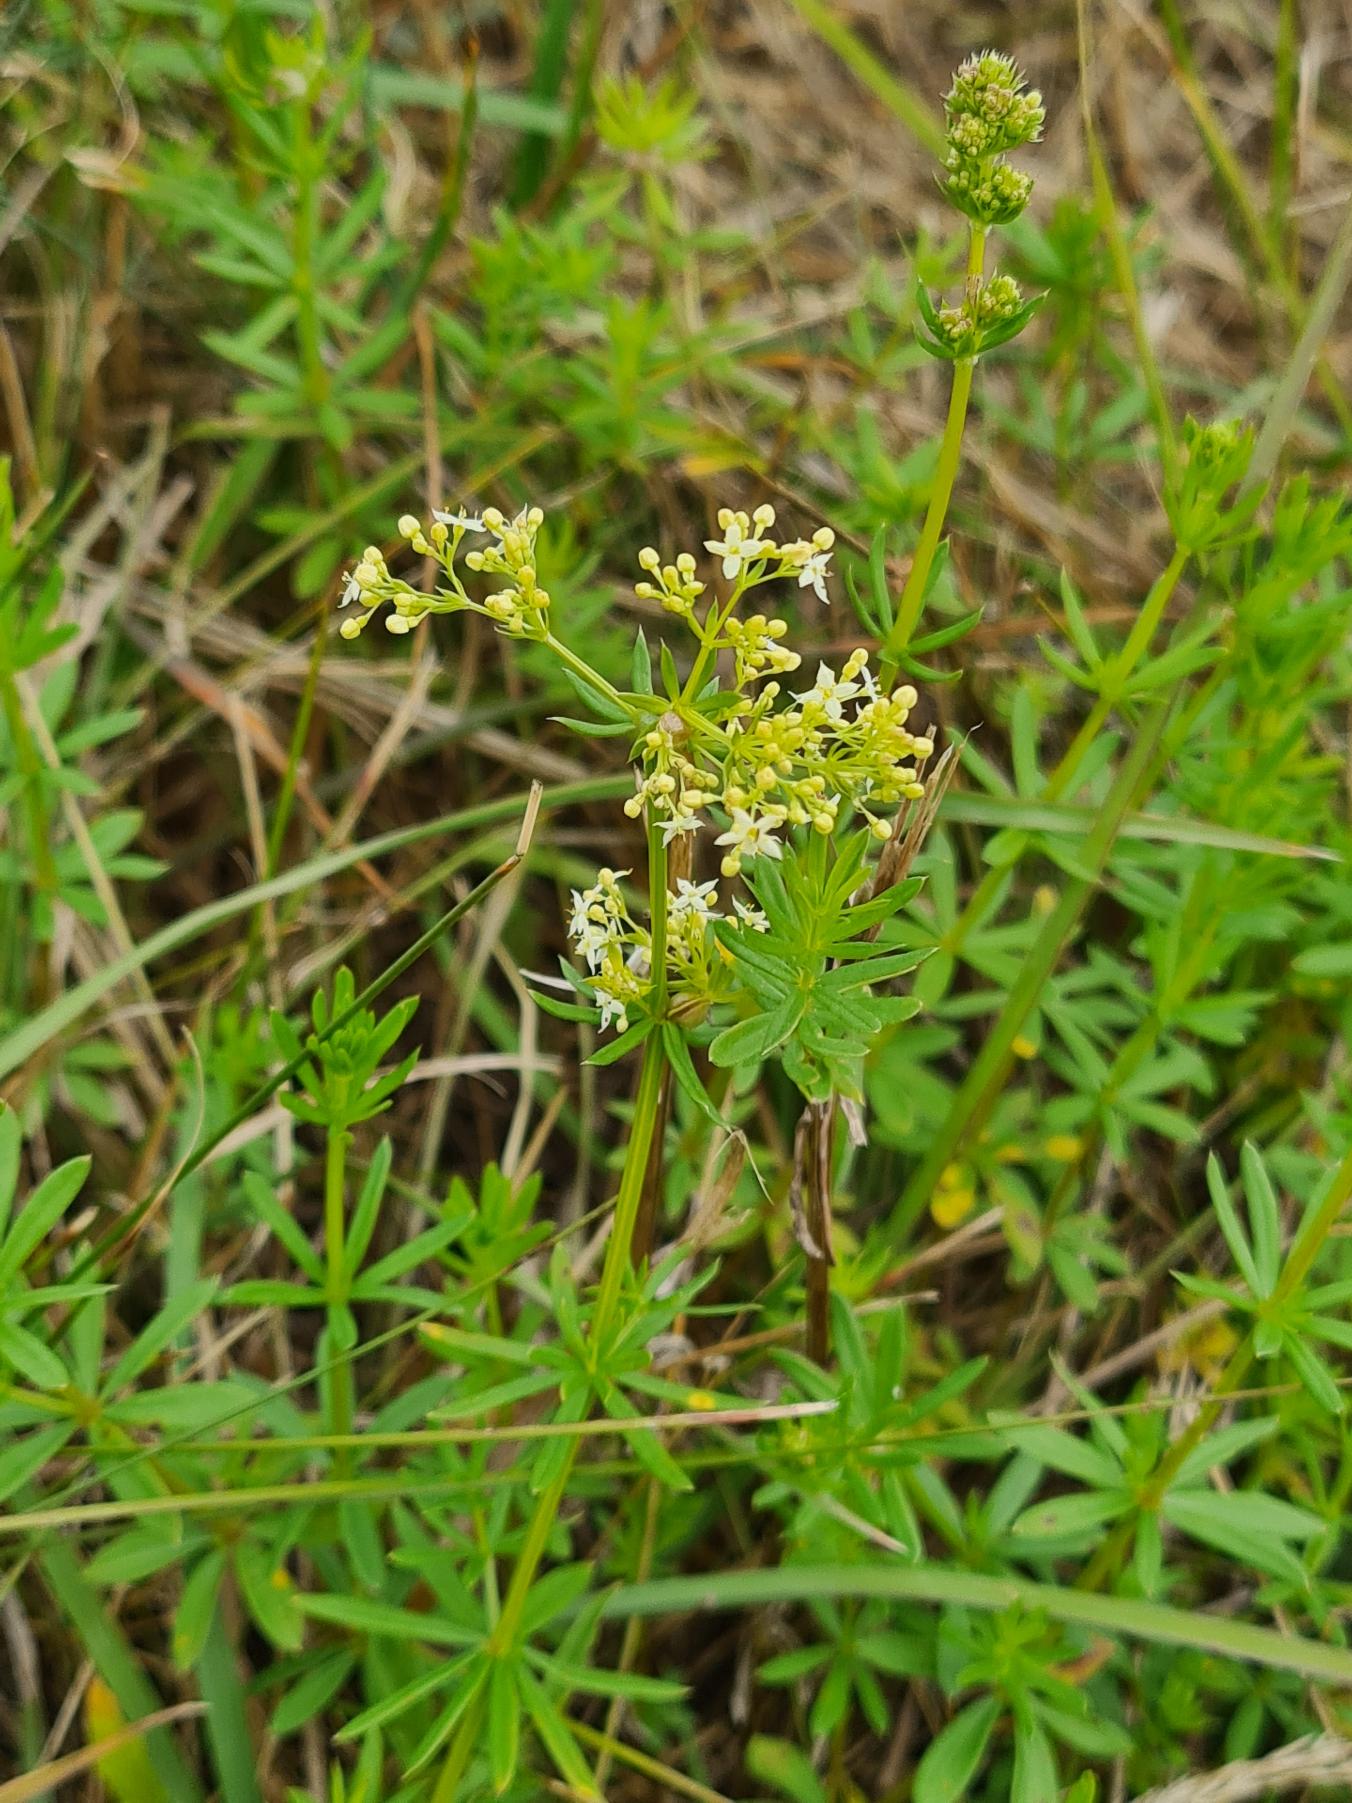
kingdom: Plantae
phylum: Tracheophyta
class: Magnoliopsida
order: Gentianales
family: Rubiaceae
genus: Galium
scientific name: Galium mollugo
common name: Hvid snerre
